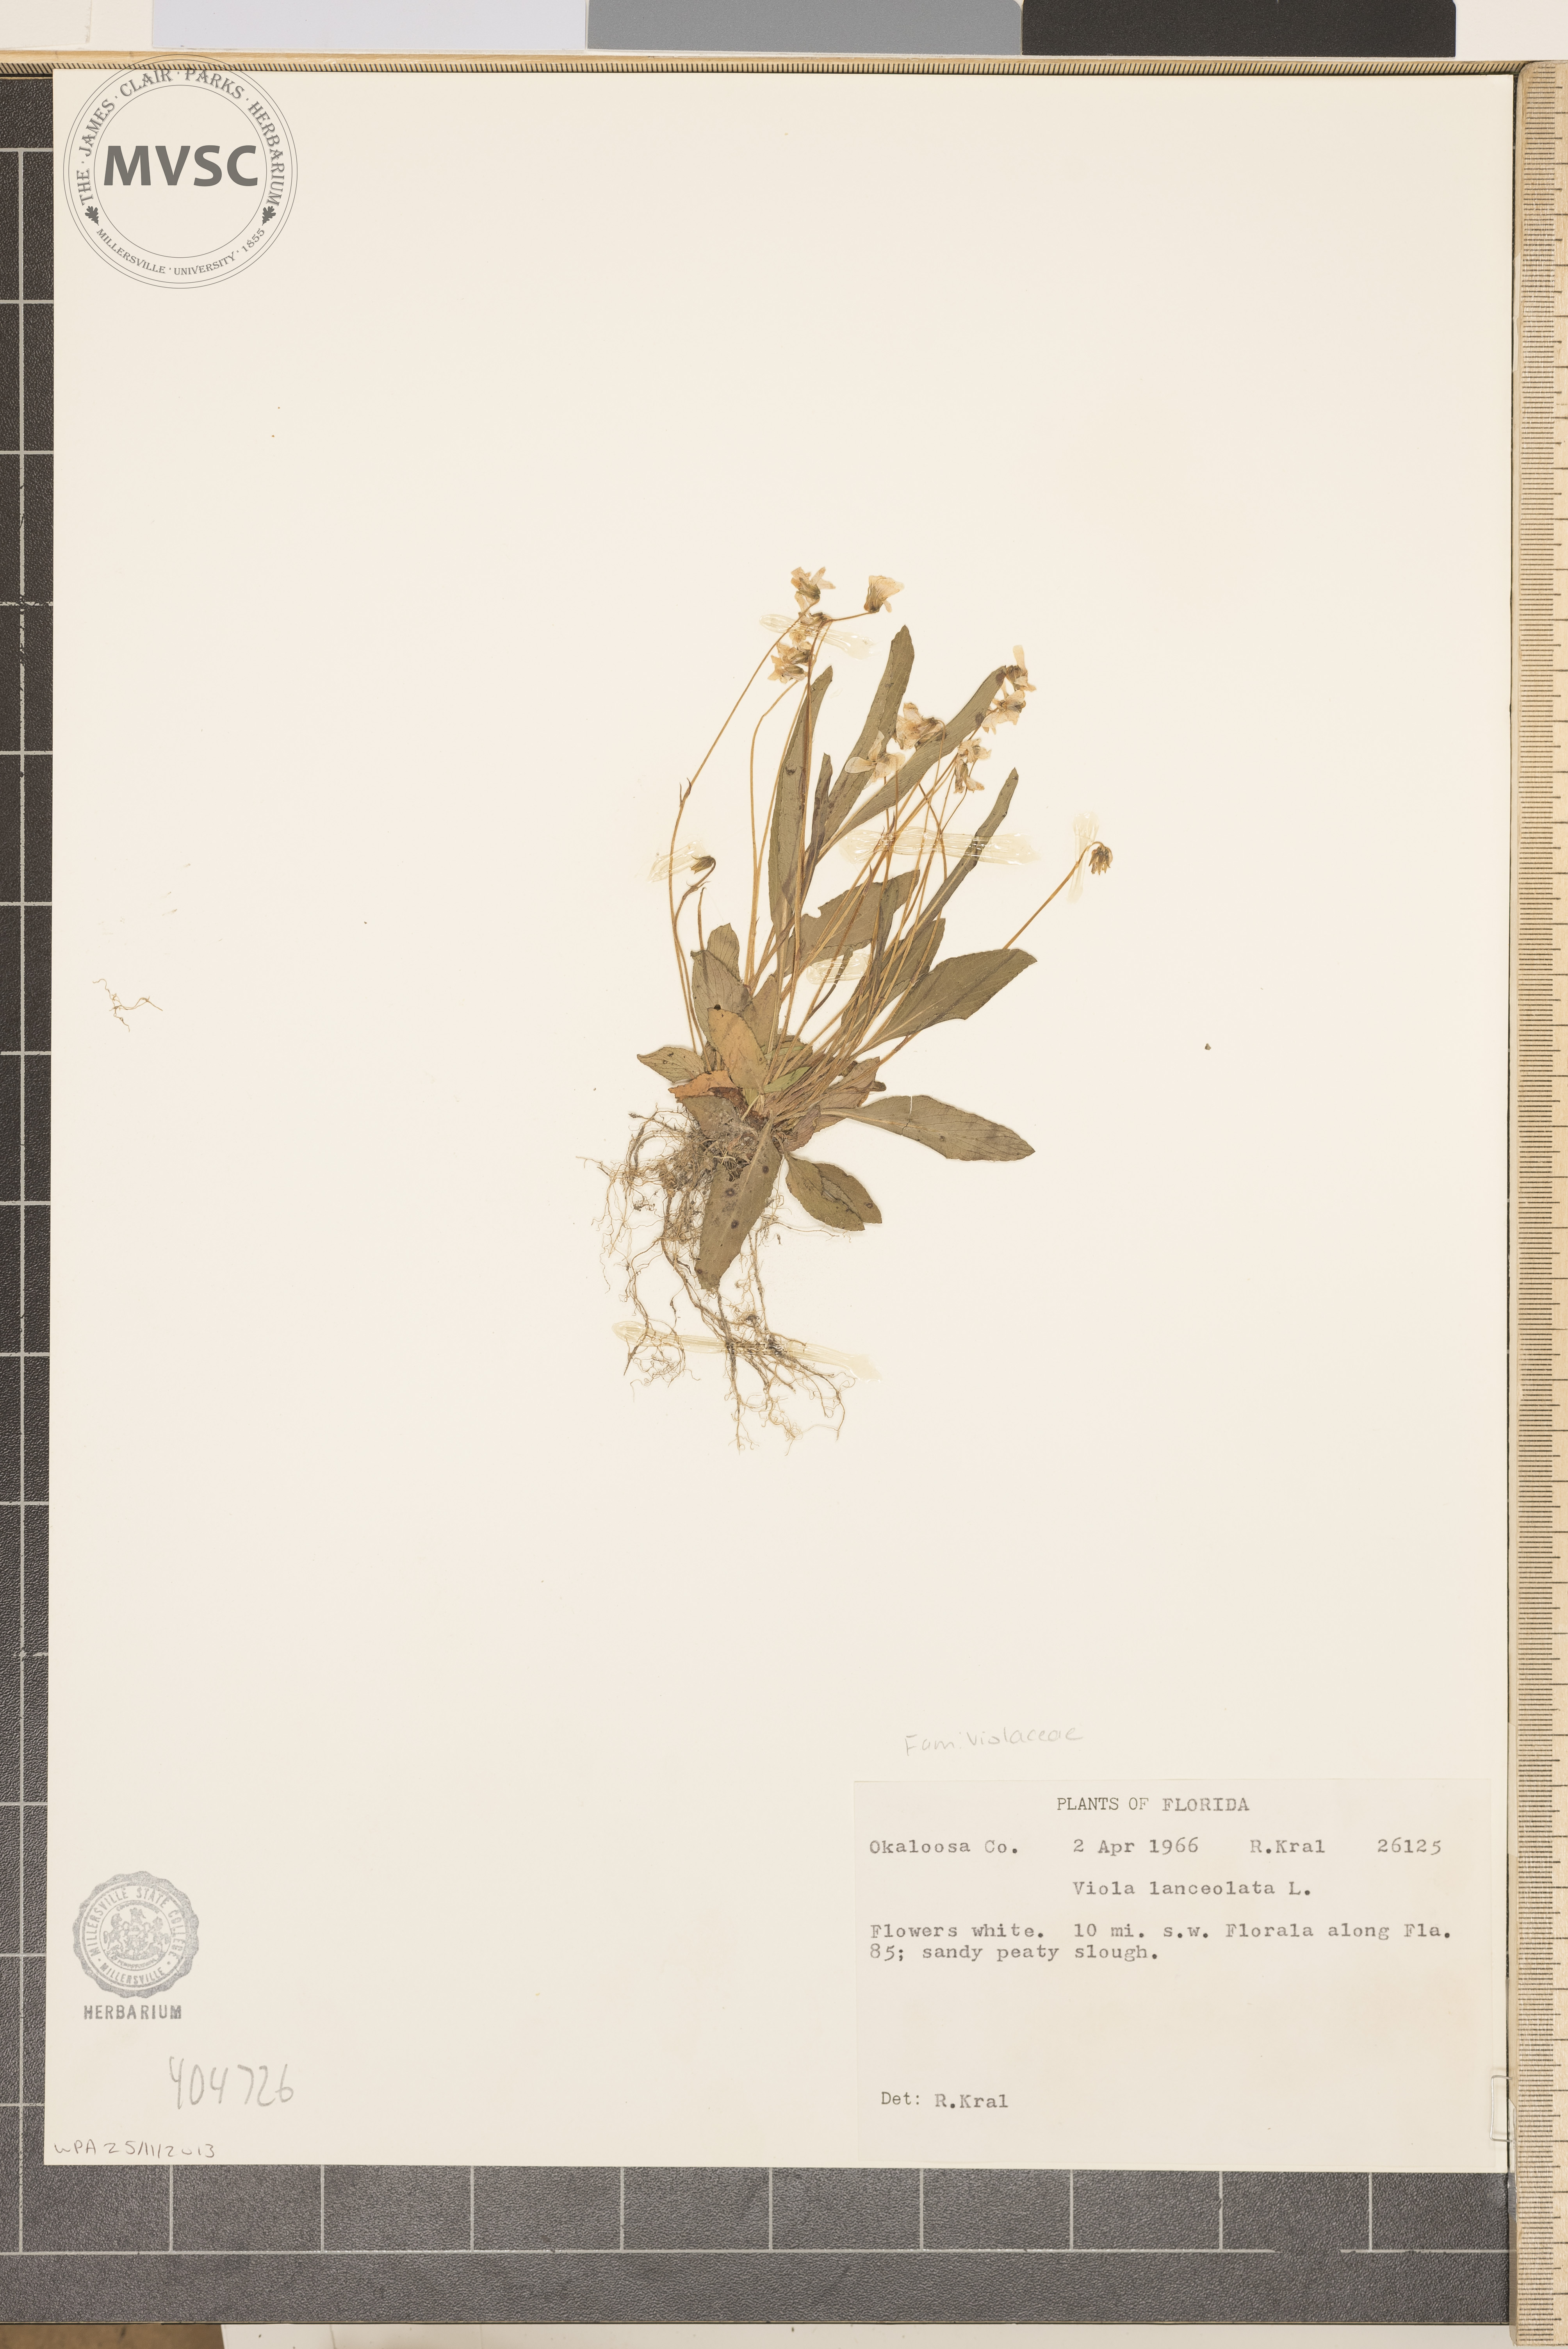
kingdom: Plantae
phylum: Tracheophyta
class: Magnoliopsida
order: Malpighiales
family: Violaceae
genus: Viola
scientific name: Viola lanceolata
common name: Bog white violet
